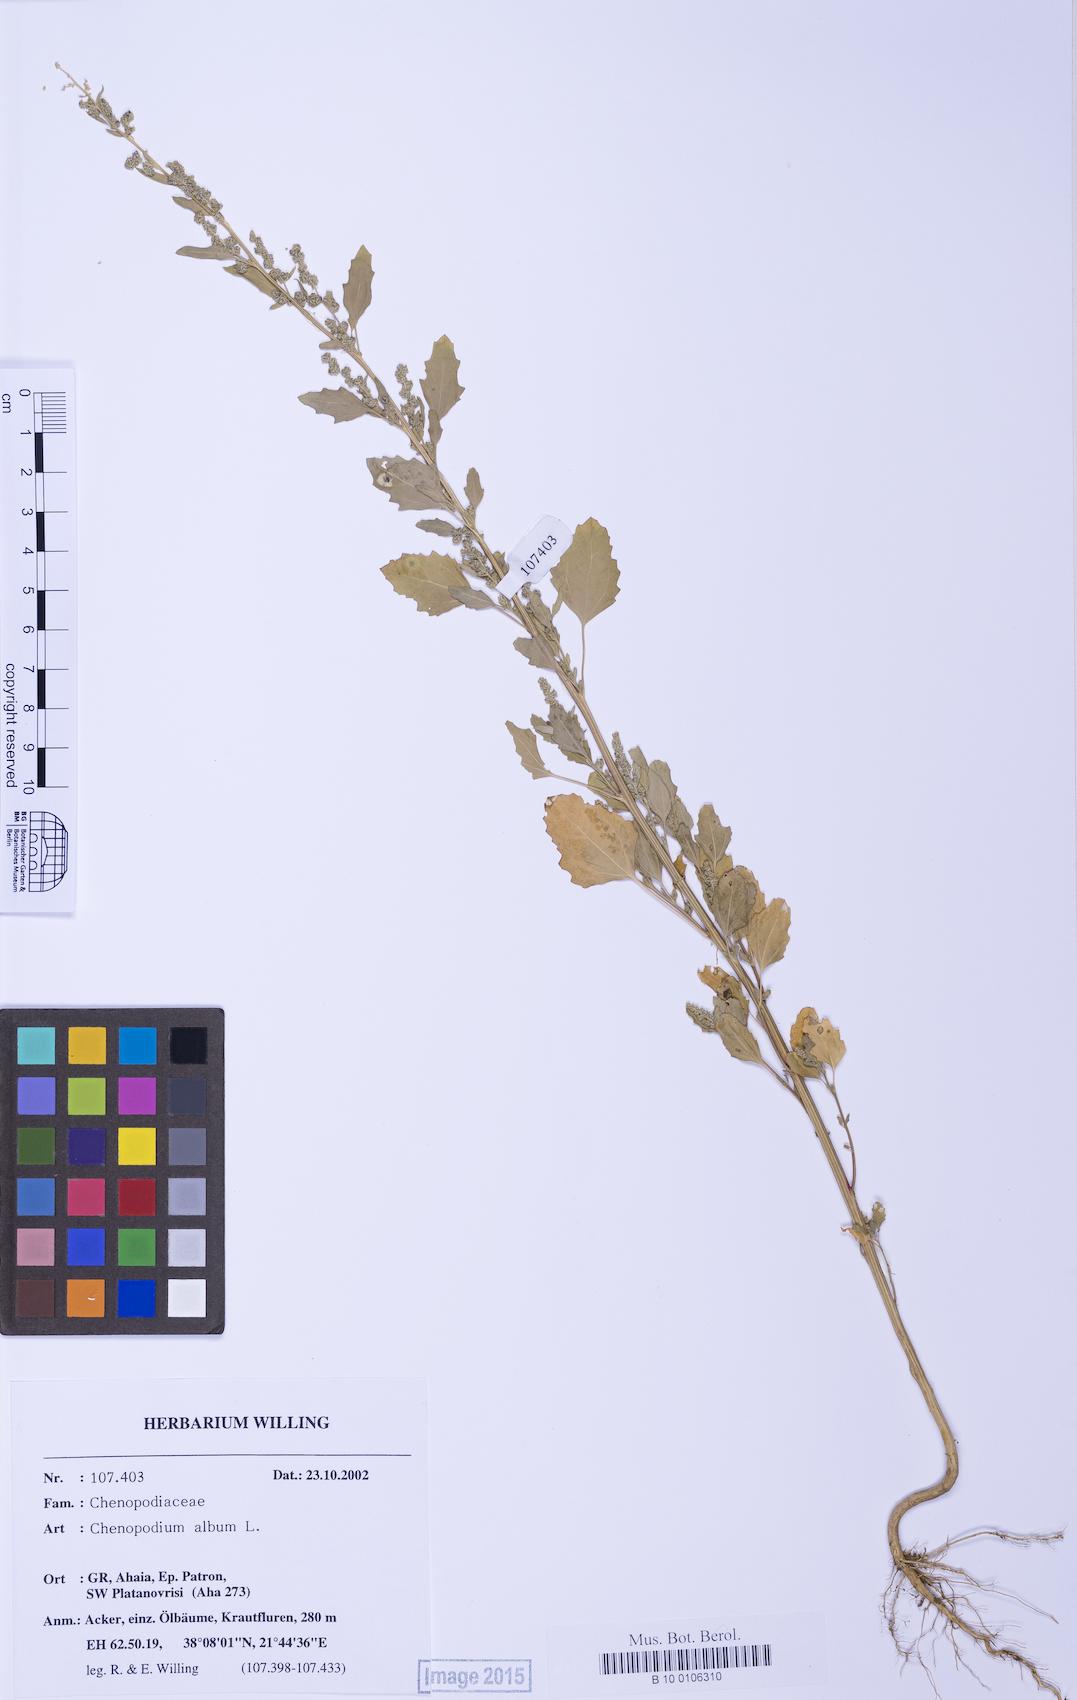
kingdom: Plantae
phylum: Tracheophyta
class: Magnoliopsida
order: Caryophyllales
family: Amaranthaceae
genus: Chenopodium
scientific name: Chenopodium betaceum
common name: Striped goosefoot
